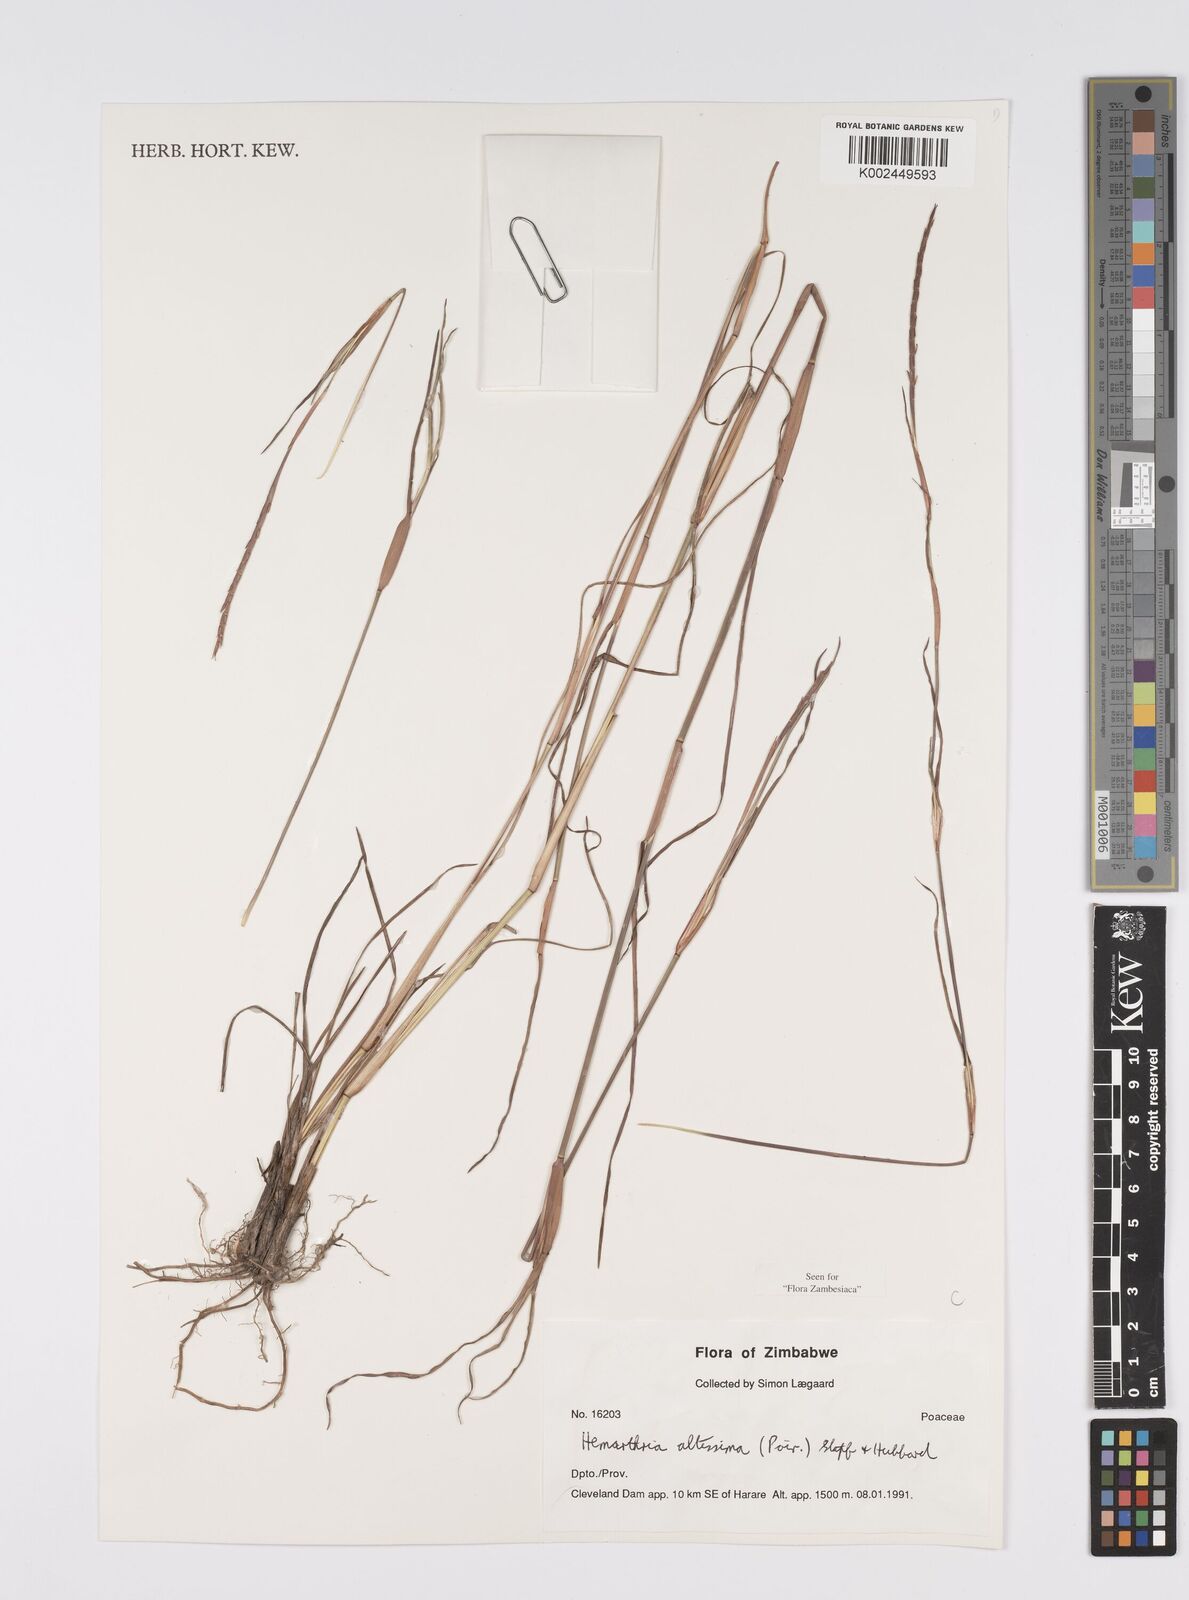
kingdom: Plantae
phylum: Tracheophyta
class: Liliopsida
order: Poales
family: Poaceae
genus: Hemarthria
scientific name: Hemarthria altissima
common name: African jointgrass
